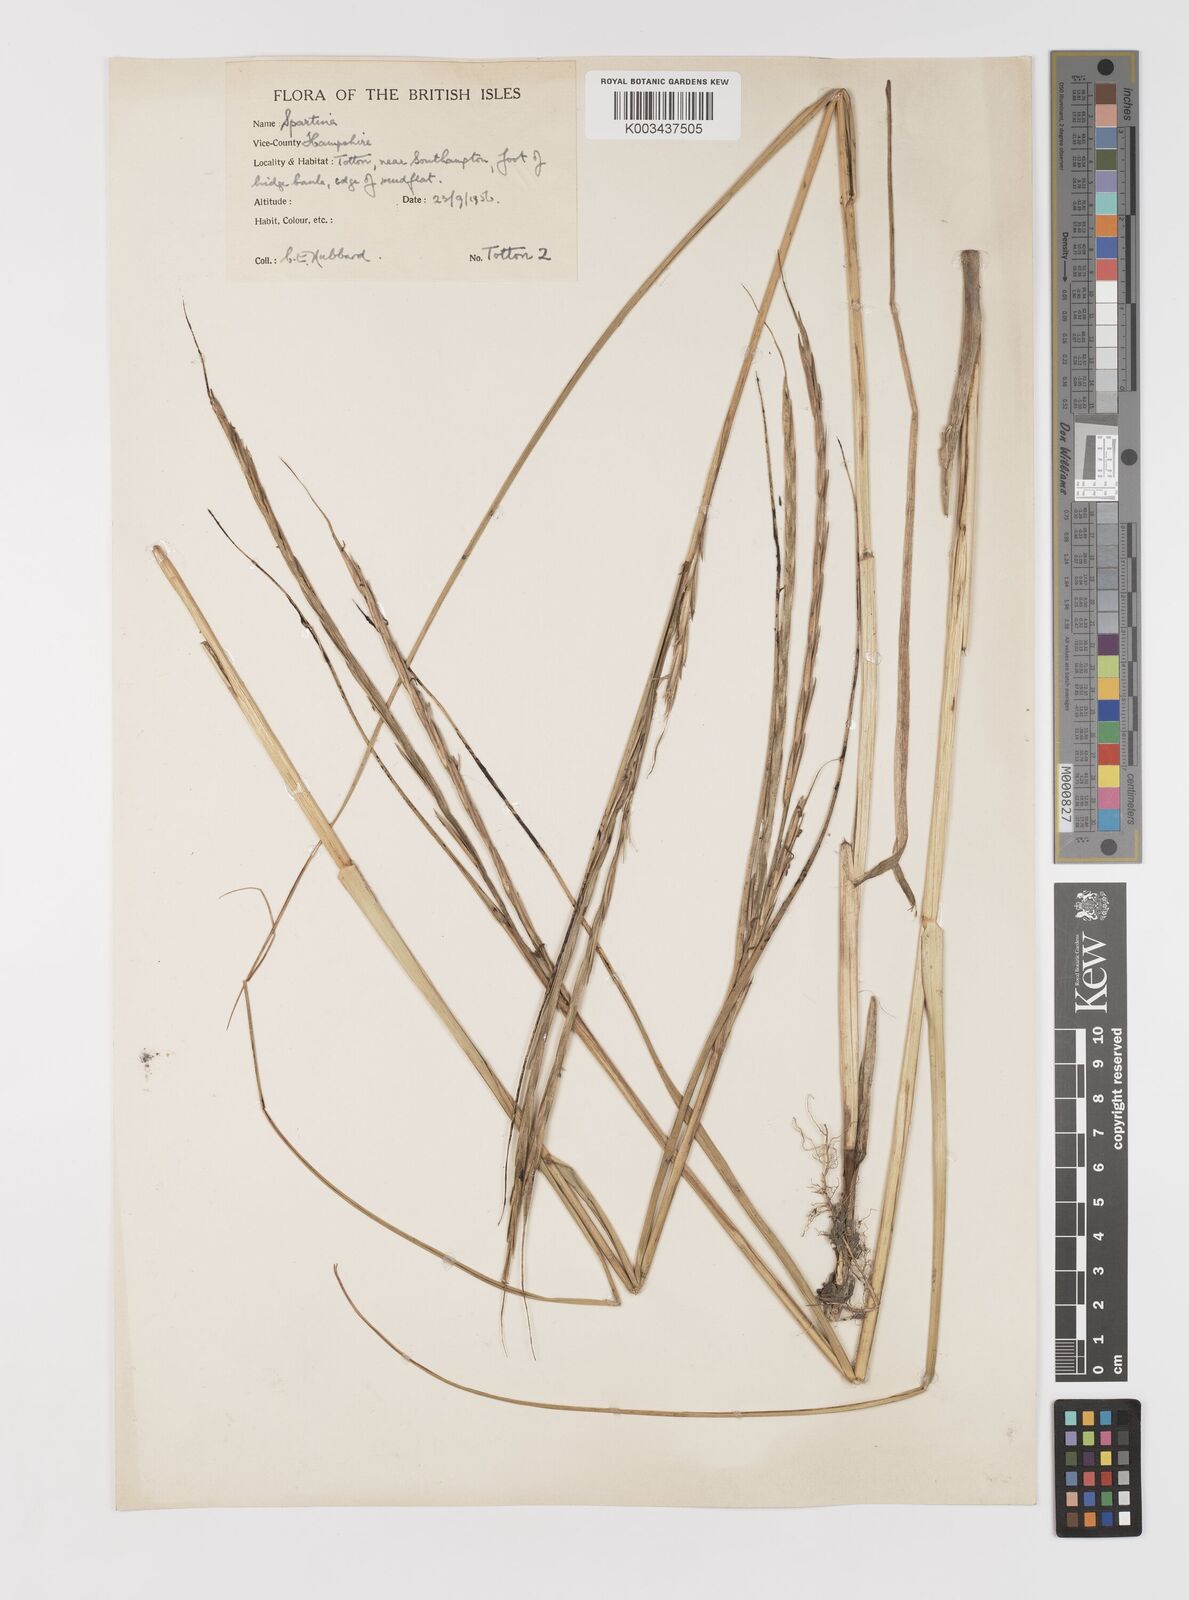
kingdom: Plantae
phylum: Tracheophyta
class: Liliopsida
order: Poales
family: Poaceae
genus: Sporobolus
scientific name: Sporobolus anglicus
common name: English cordgrass
